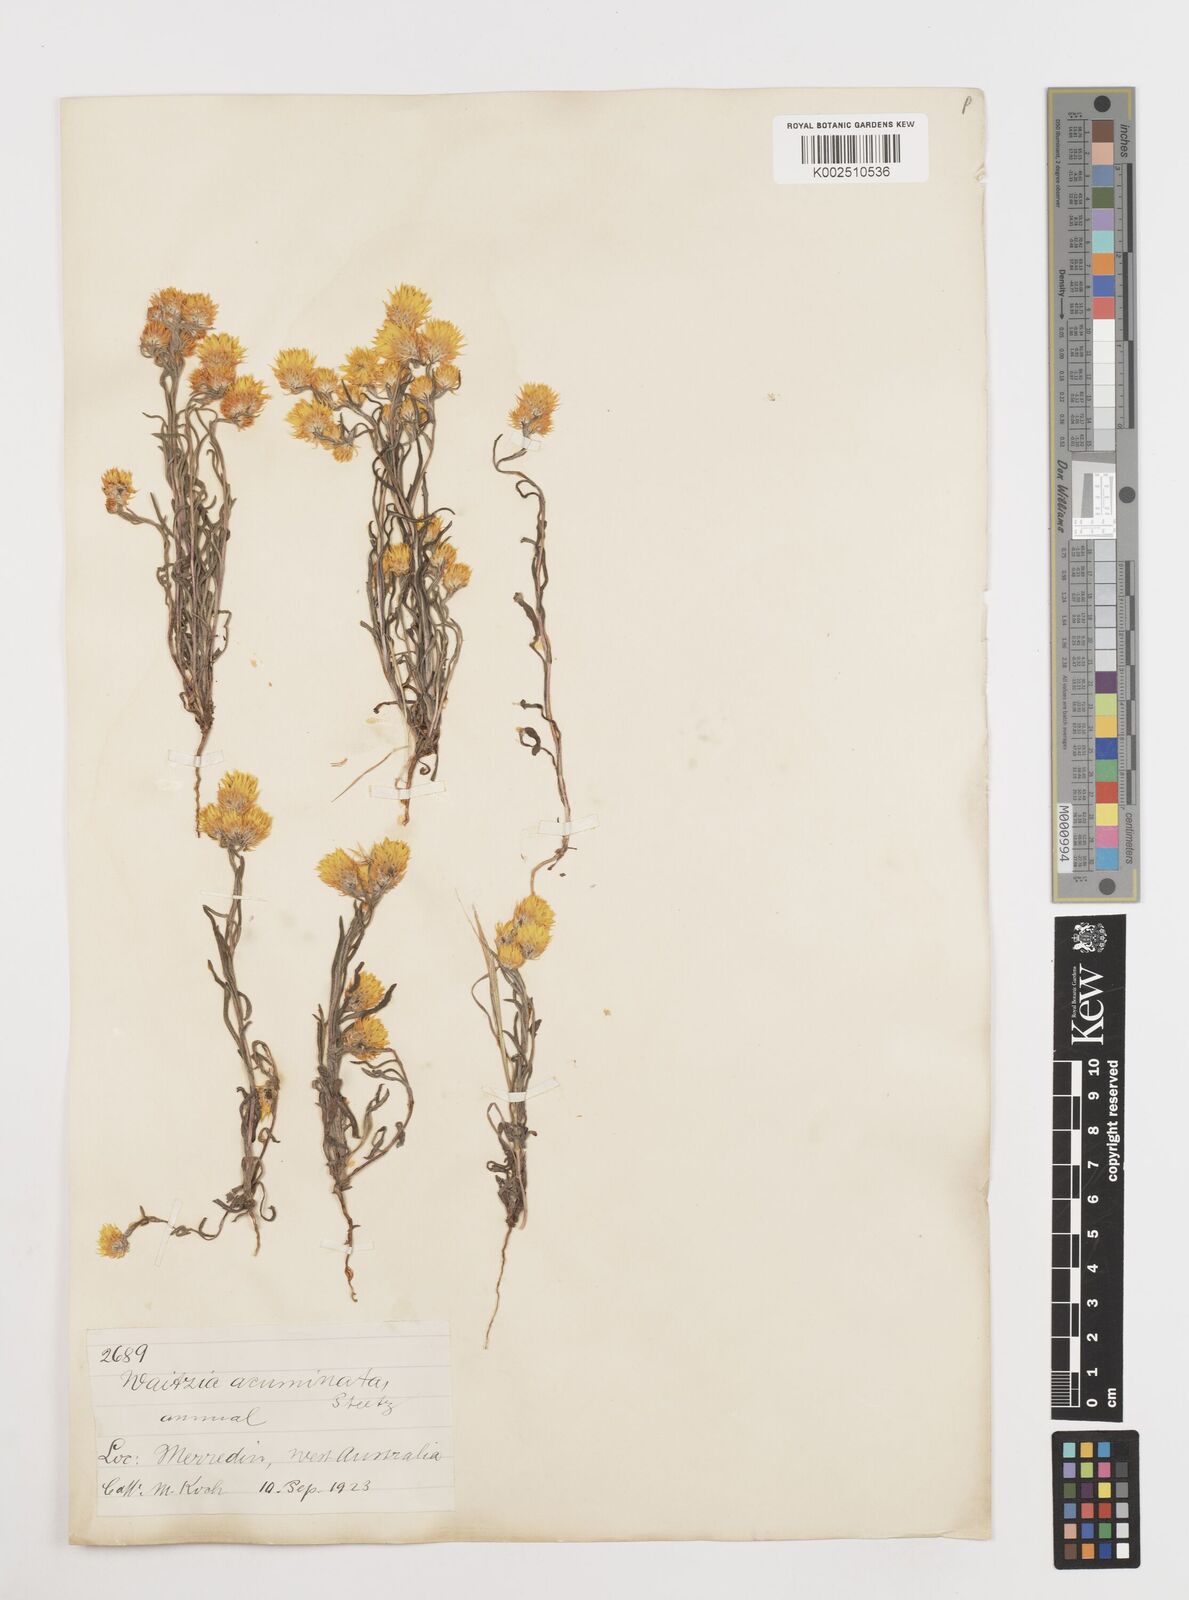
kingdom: Plantae
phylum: Tracheophyta
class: Magnoliopsida
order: Asterales
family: Asteraceae
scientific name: Asteraceae
